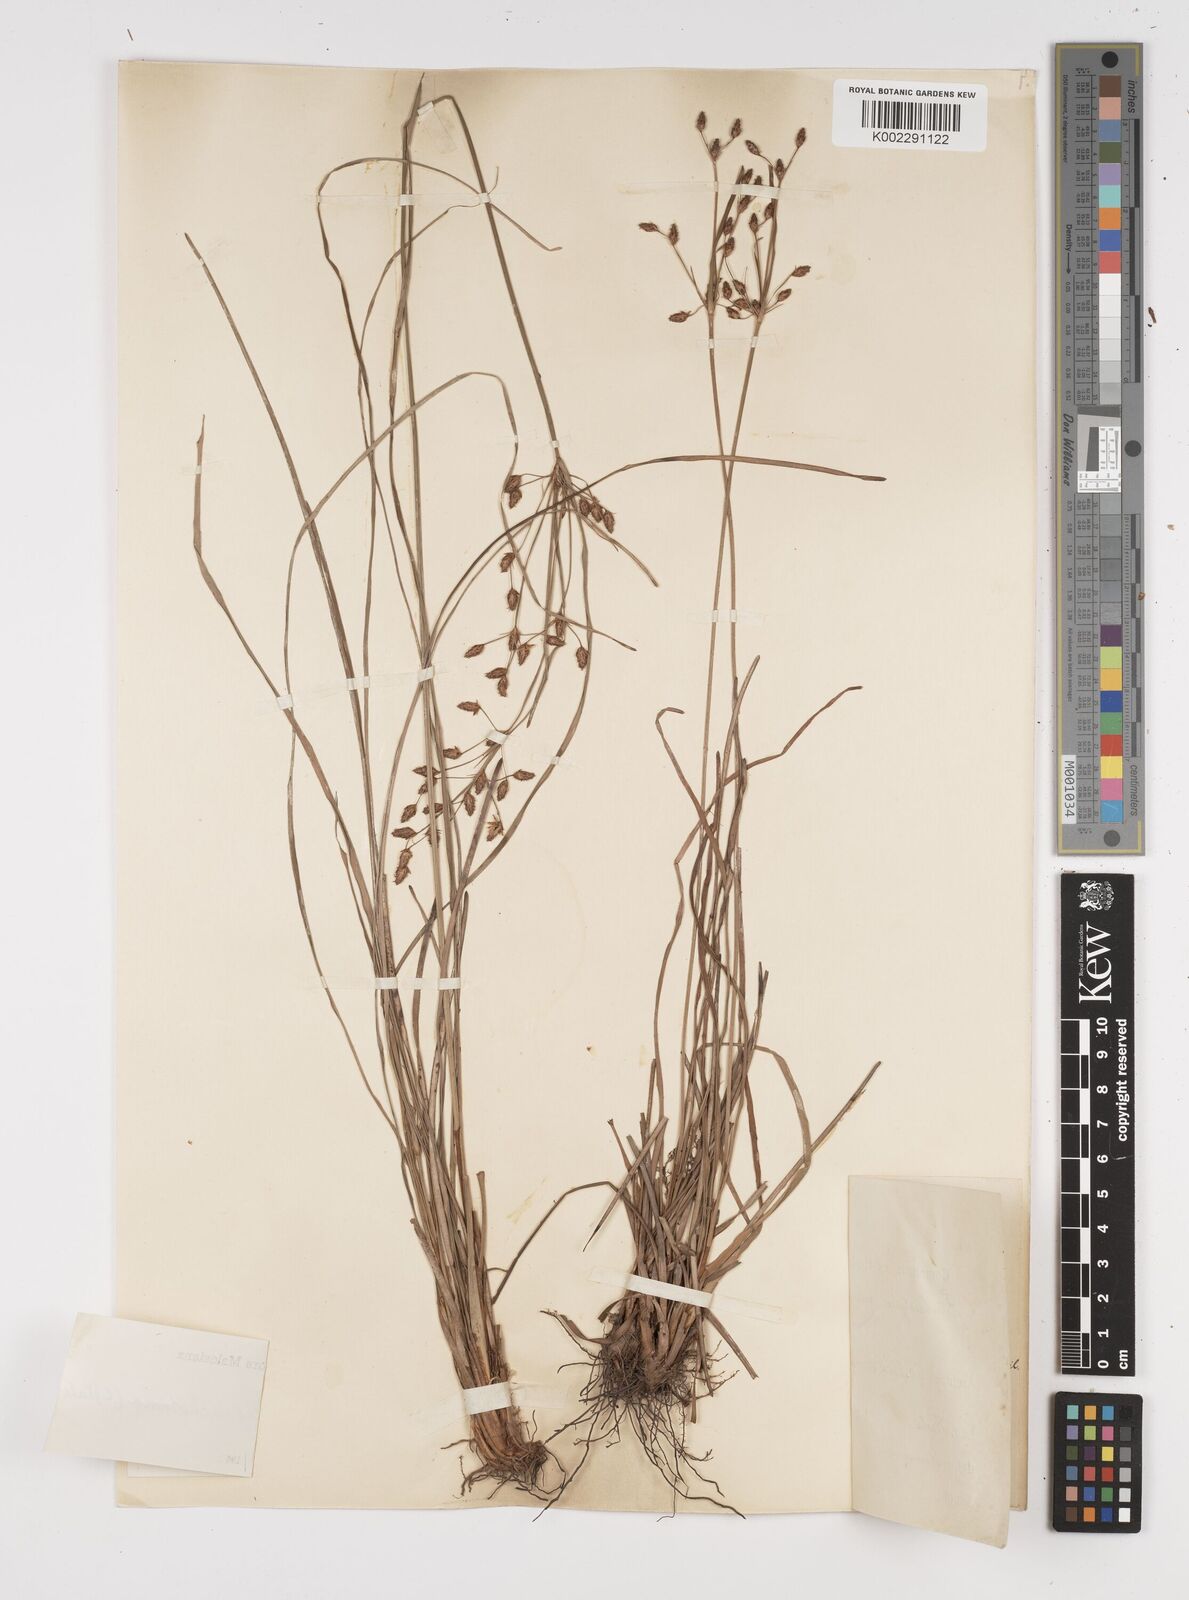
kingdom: Plantae
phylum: Tracheophyta
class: Liliopsida
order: Poales
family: Cyperaceae
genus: Fimbristylis
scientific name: Fimbristylis dichotoma
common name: Forked fimbry
